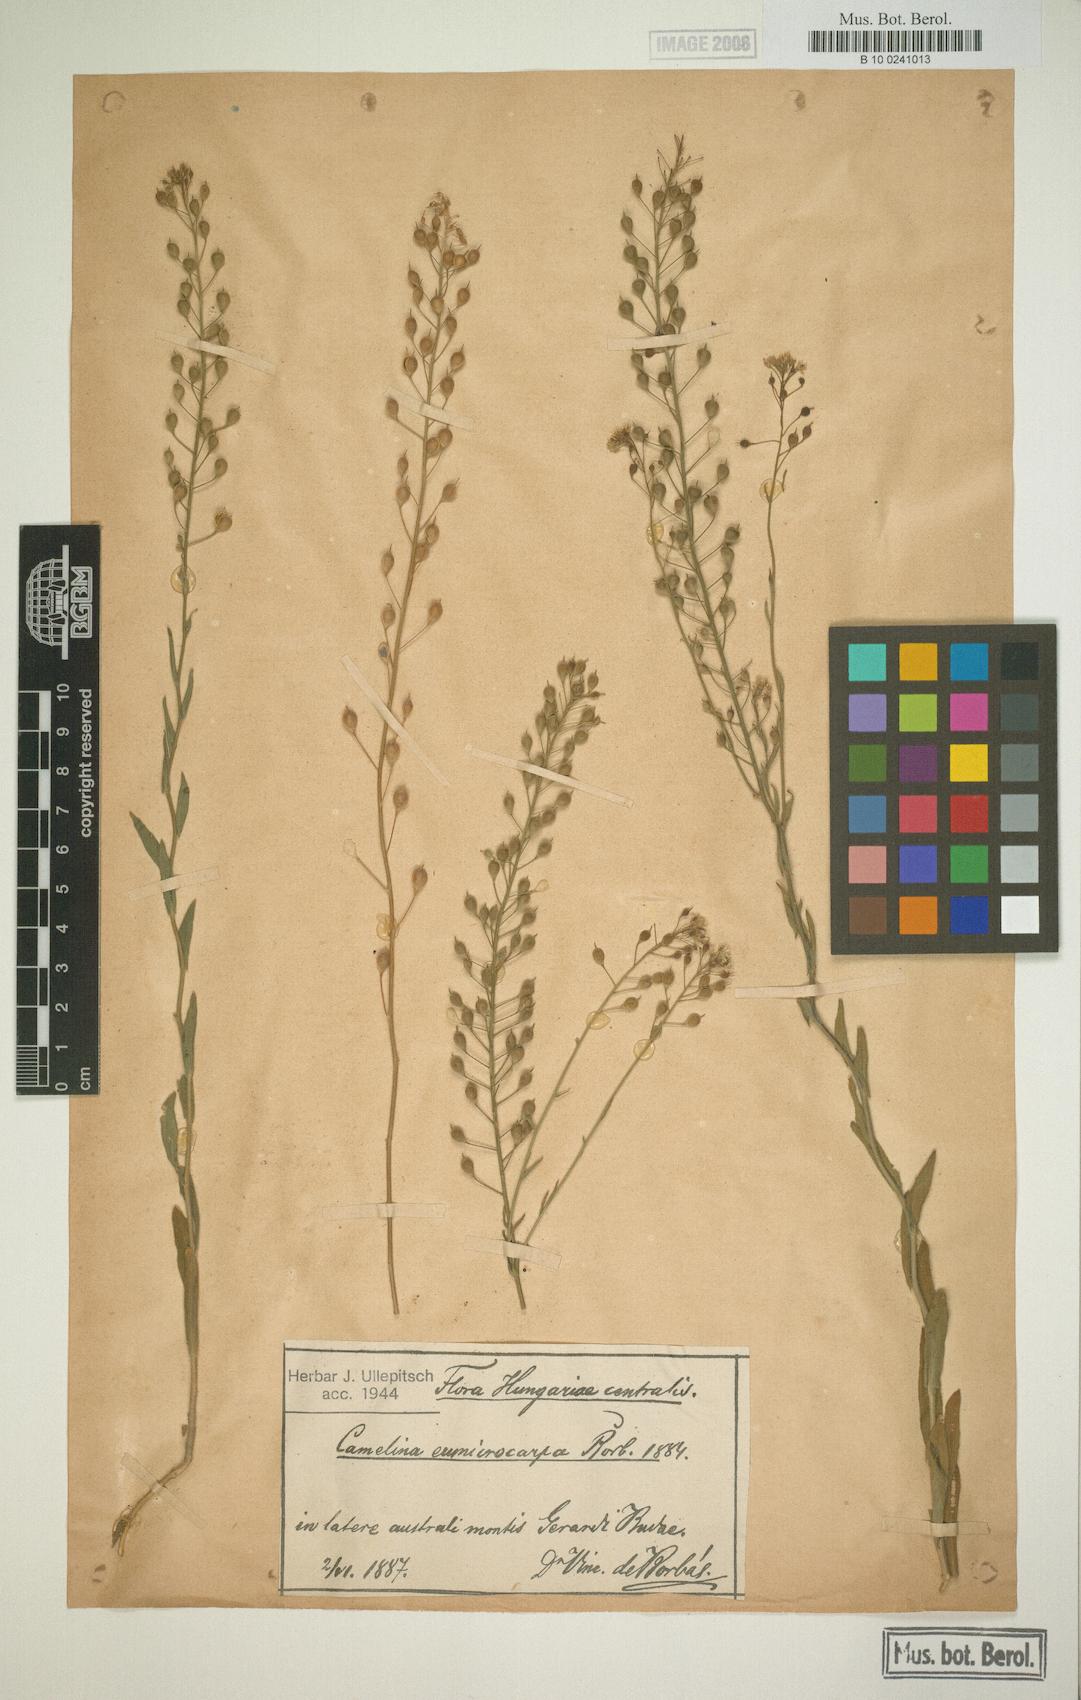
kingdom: Plantae
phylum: Tracheophyta
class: Magnoliopsida
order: Brassicales
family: Brassicaceae
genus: Camelina
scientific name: Camelina
